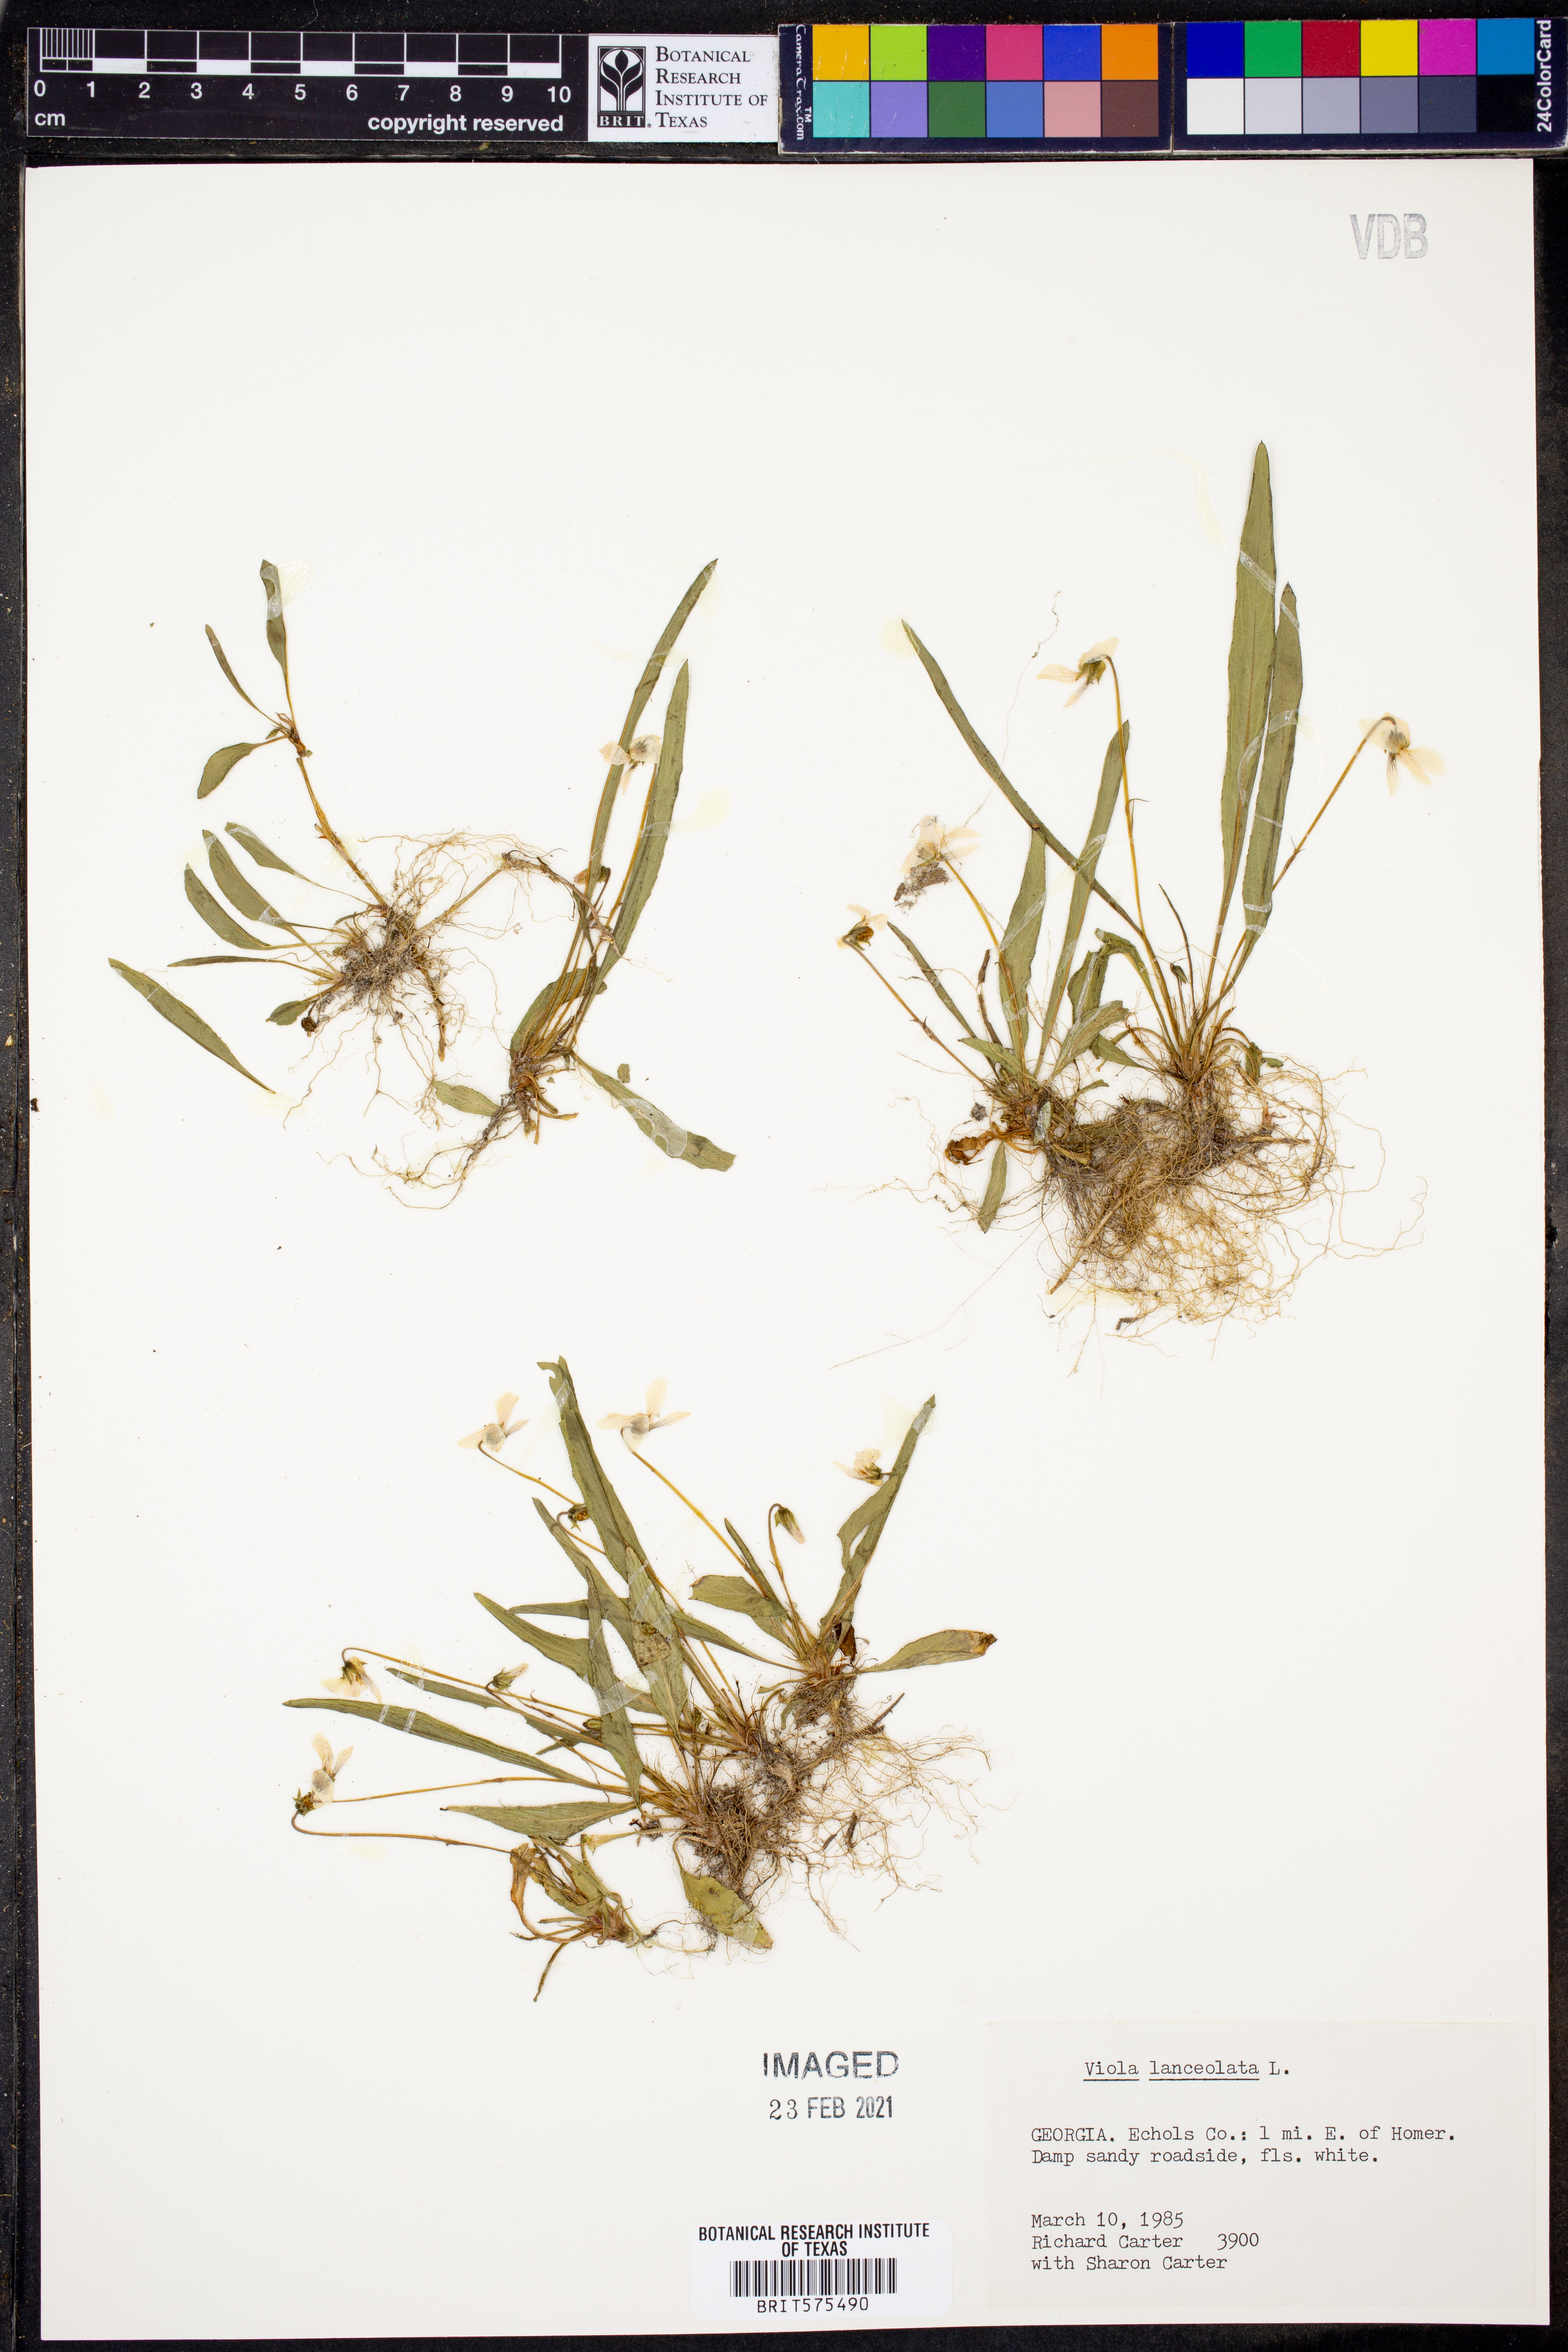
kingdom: Plantae
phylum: Tracheophyta
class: Magnoliopsida
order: Malpighiales
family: Violaceae
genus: Viola
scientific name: Viola lanceolata
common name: Bog white violet
